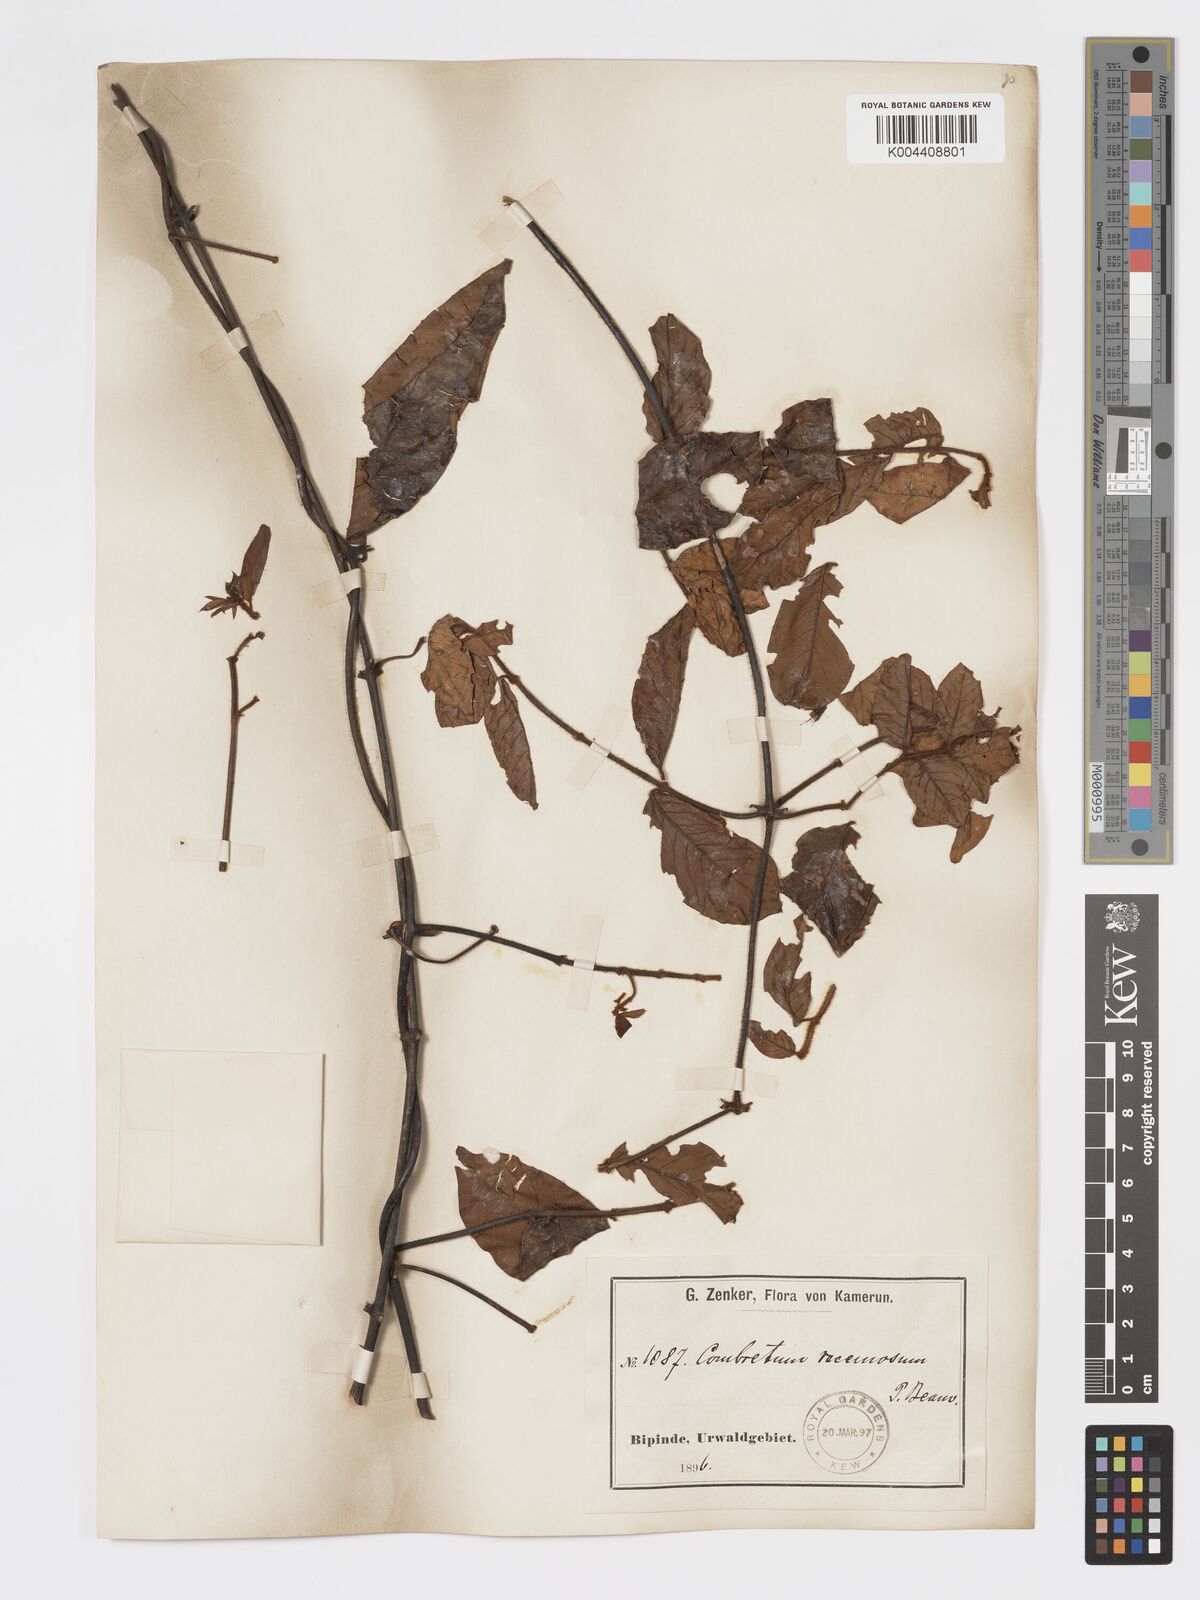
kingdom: Plantae
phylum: Tracheophyta
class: Magnoliopsida
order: Myrtales
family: Combretaceae
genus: Combretum
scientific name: Combretum racemosum
